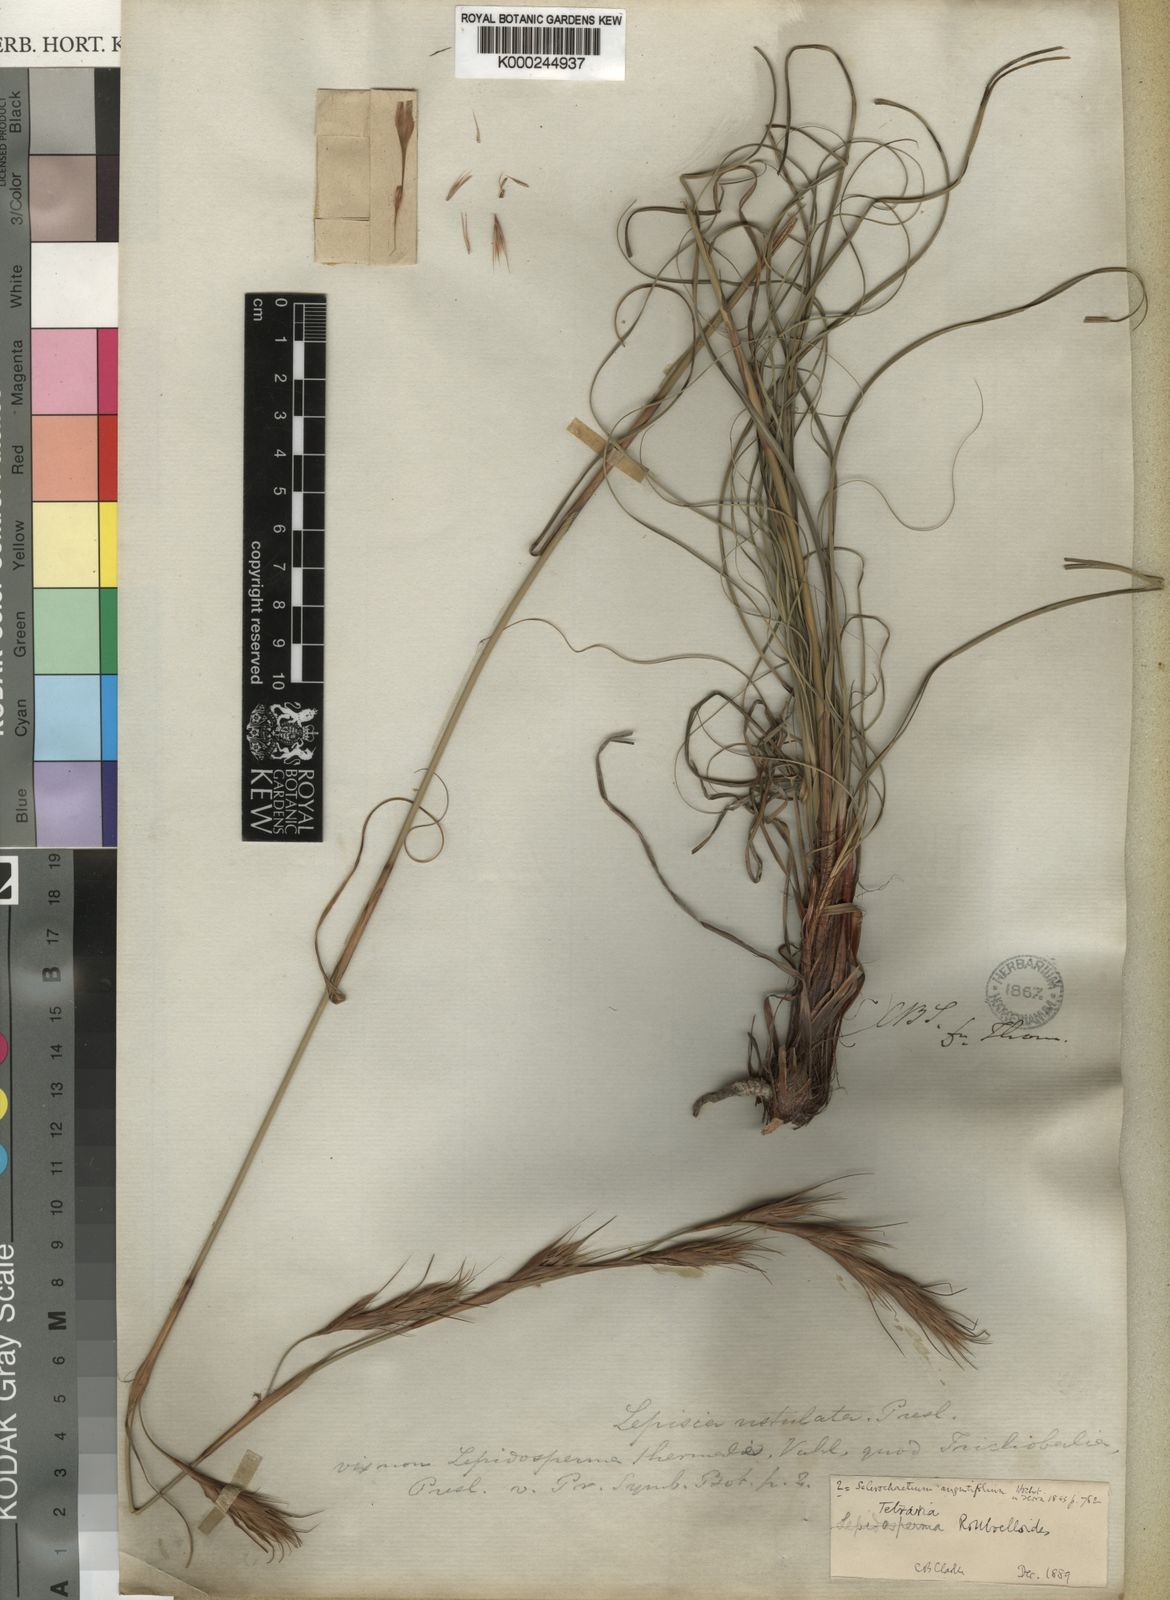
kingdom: Plantae
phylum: Tracheophyta
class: Liliopsida
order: Poales
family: Cyperaceae
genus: Tetraria
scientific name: Tetraria bromoides
